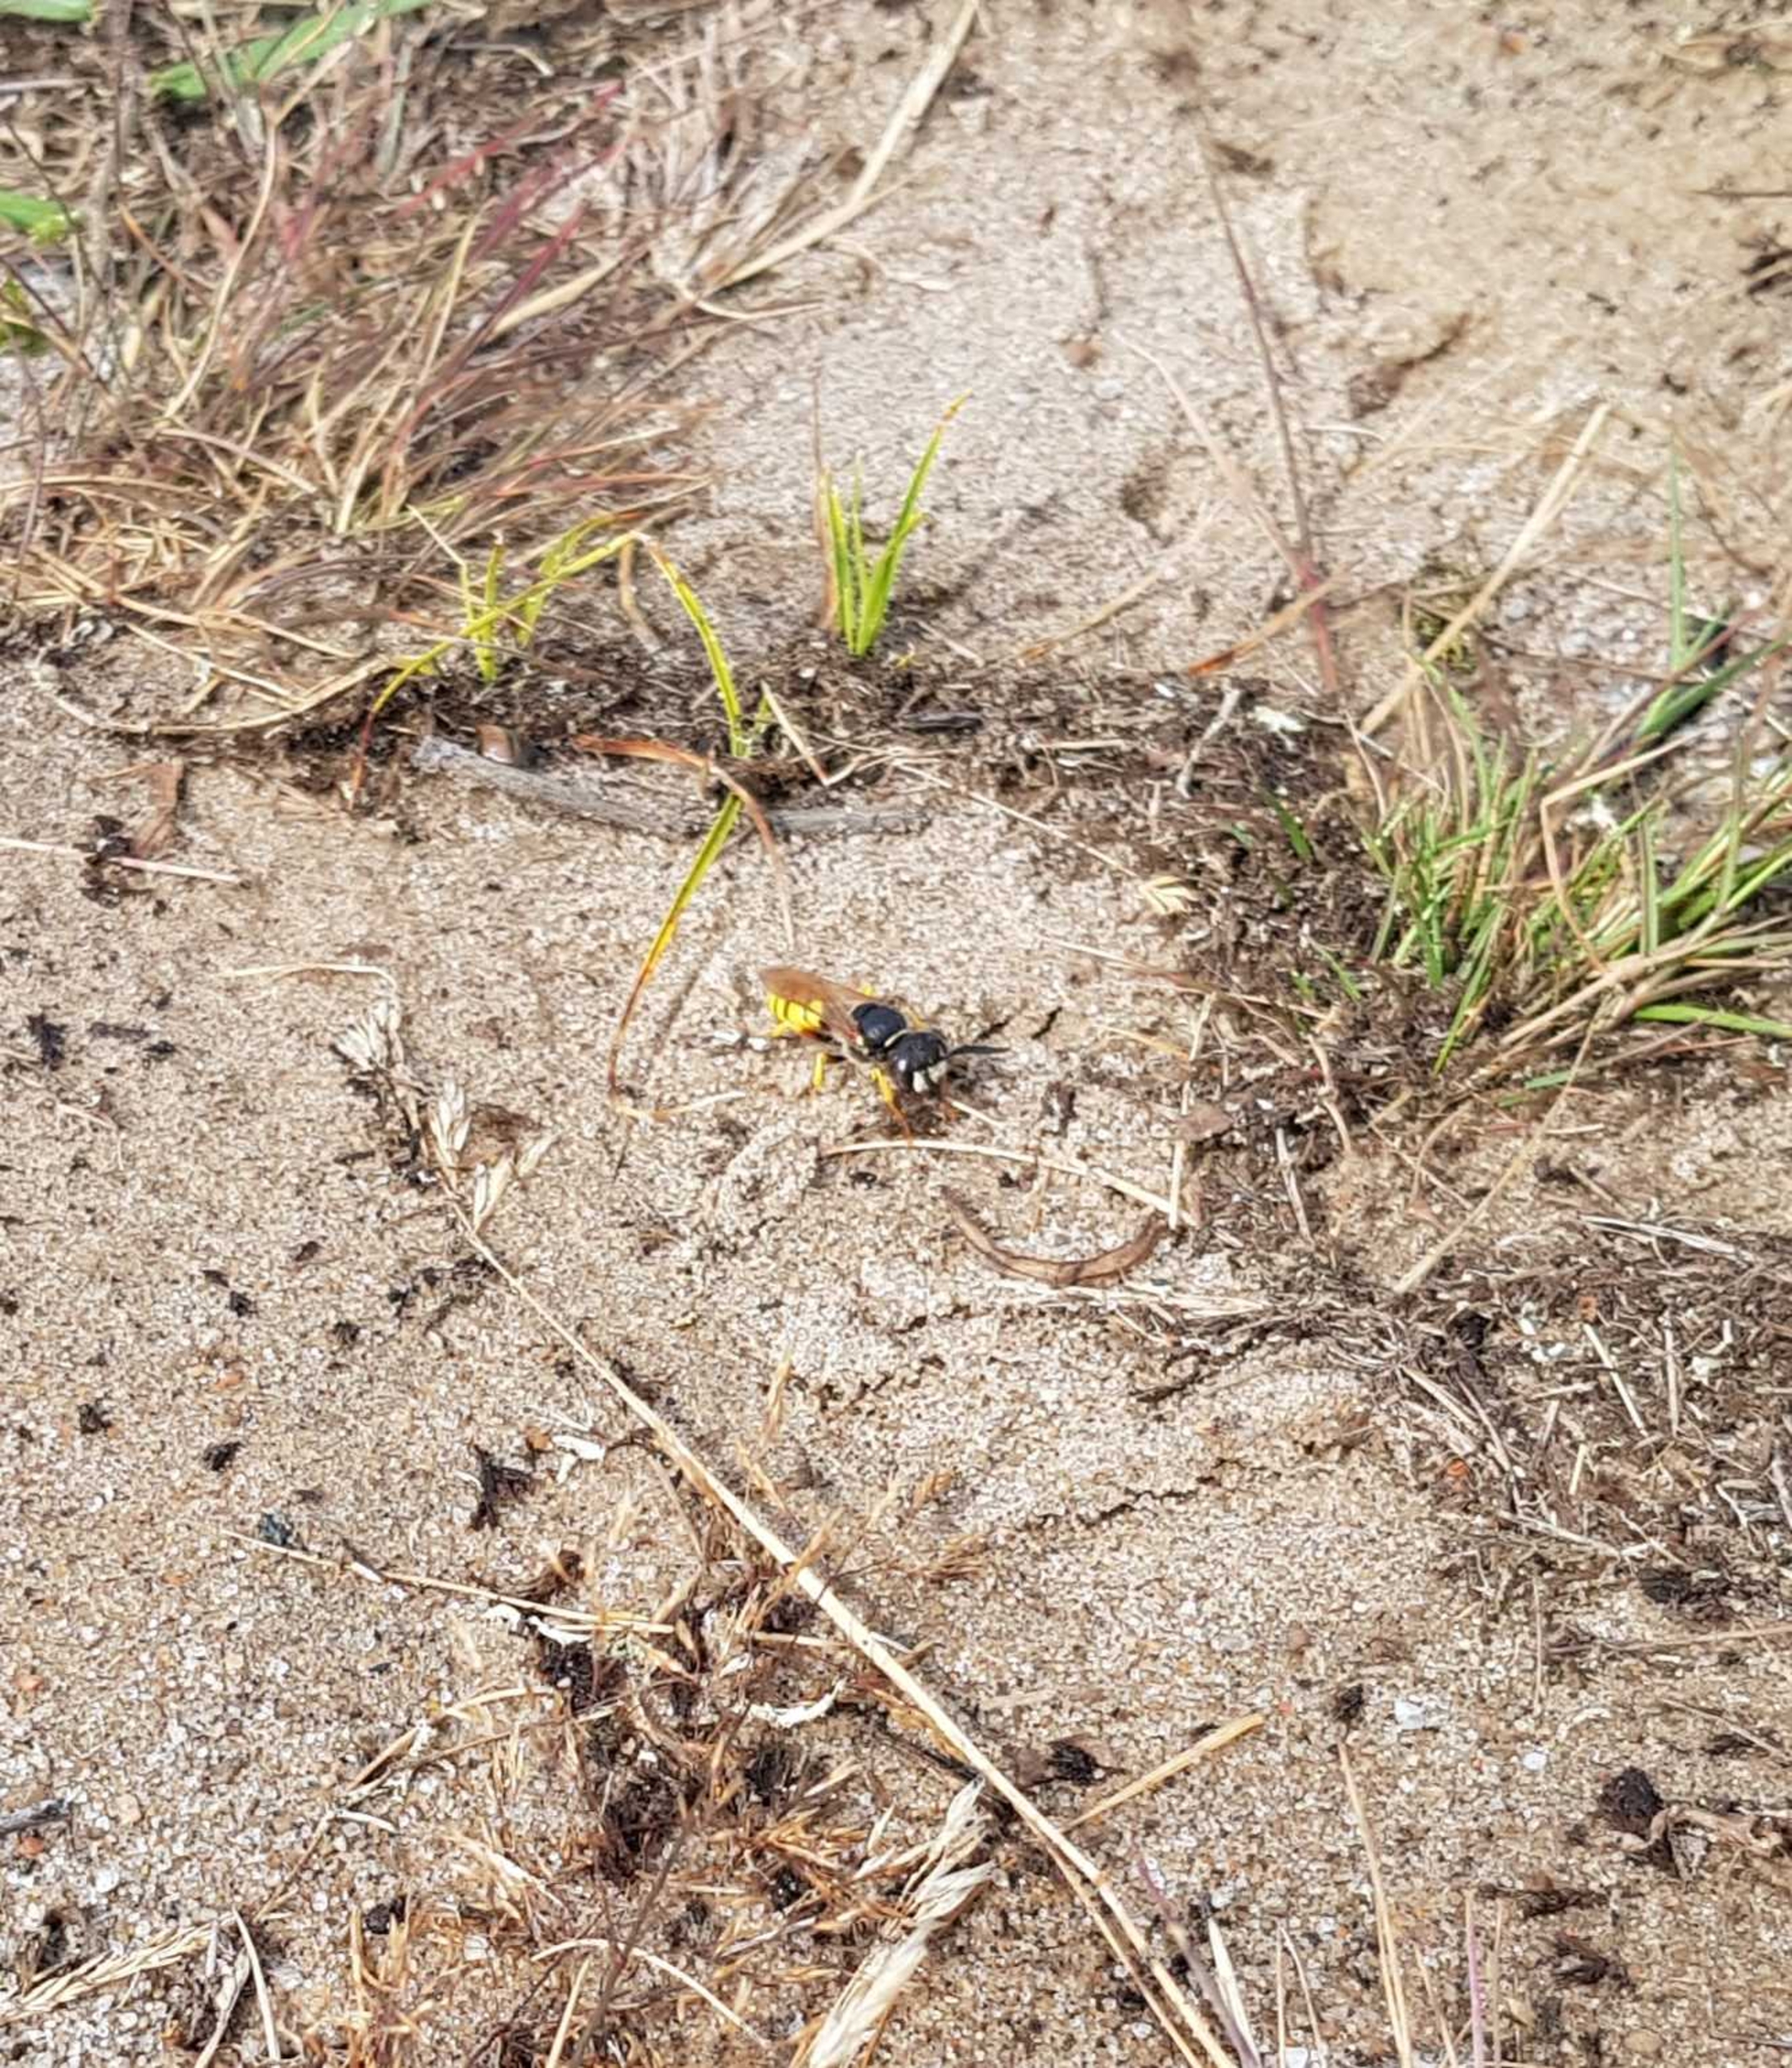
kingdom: Animalia
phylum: Arthropoda
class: Insecta
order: Hymenoptera
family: Crabronidae
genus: Philanthus
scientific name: Philanthus triangulum
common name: Biulv
